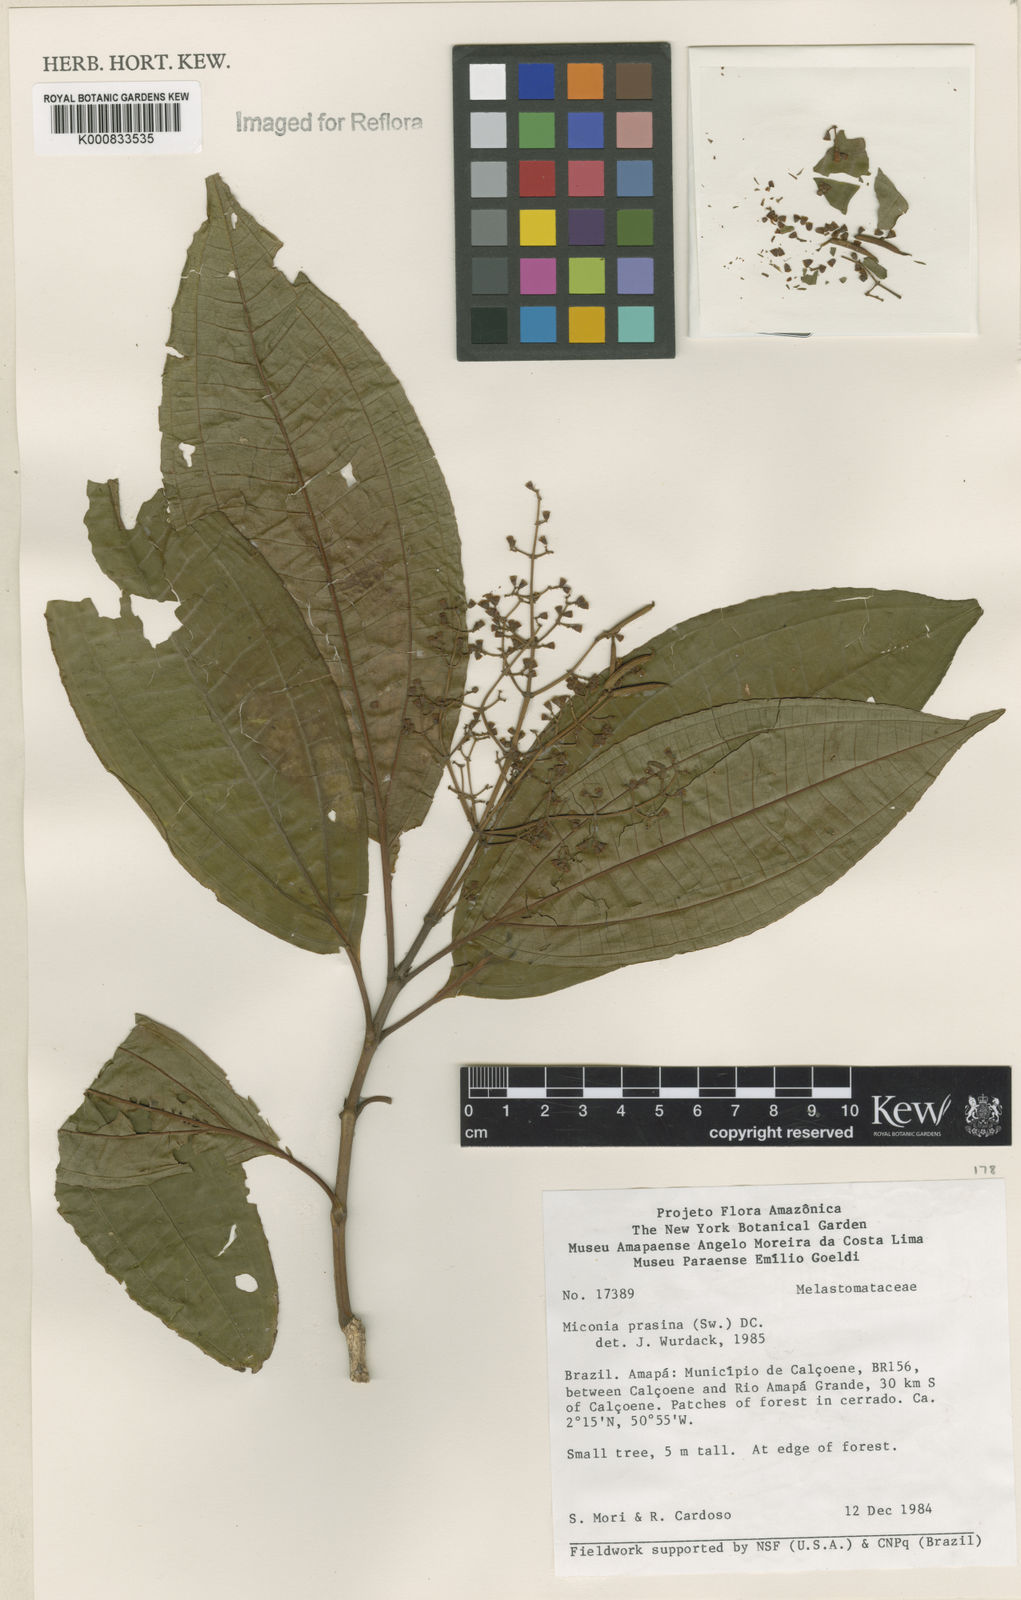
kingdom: Plantae
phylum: Tracheophyta
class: Magnoliopsida
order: Myrtales
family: Melastomataceae
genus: Miconia
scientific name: Miconia prasina
